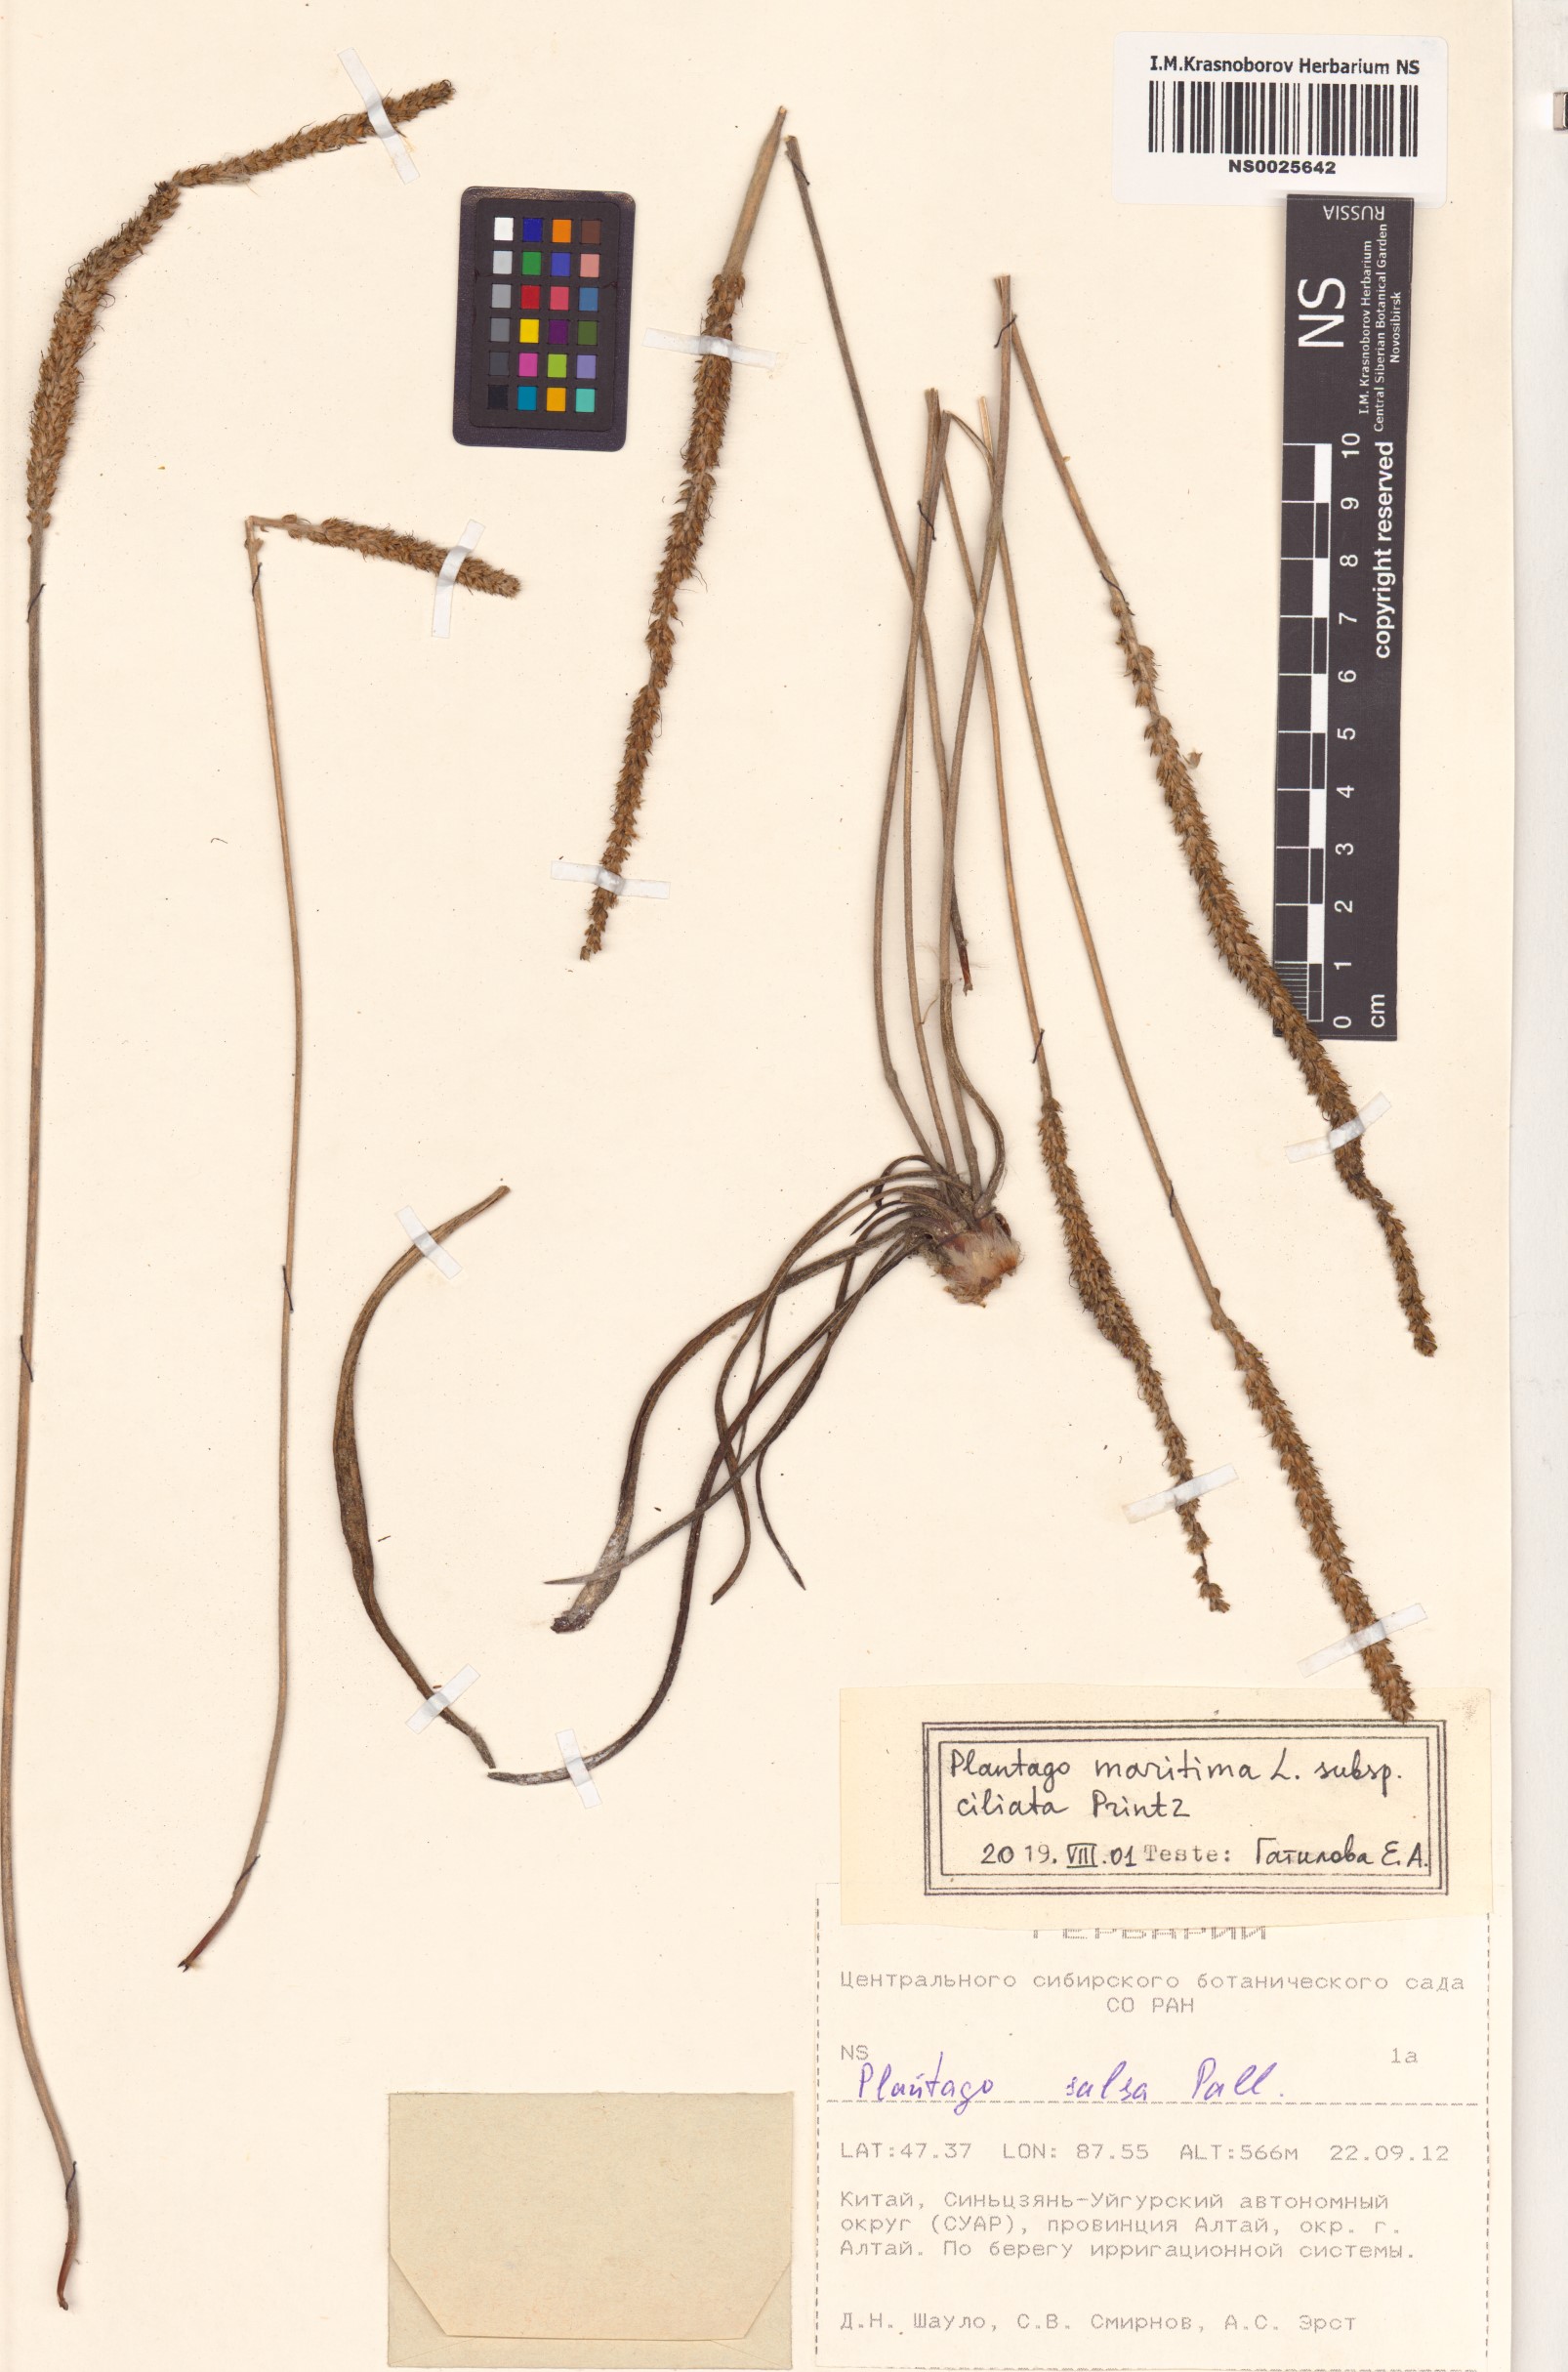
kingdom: Plantae
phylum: Tracheophyta
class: Magnoliopsida
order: Lamiales
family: Plantaginaceae
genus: Plantago
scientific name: Plantago salsa
